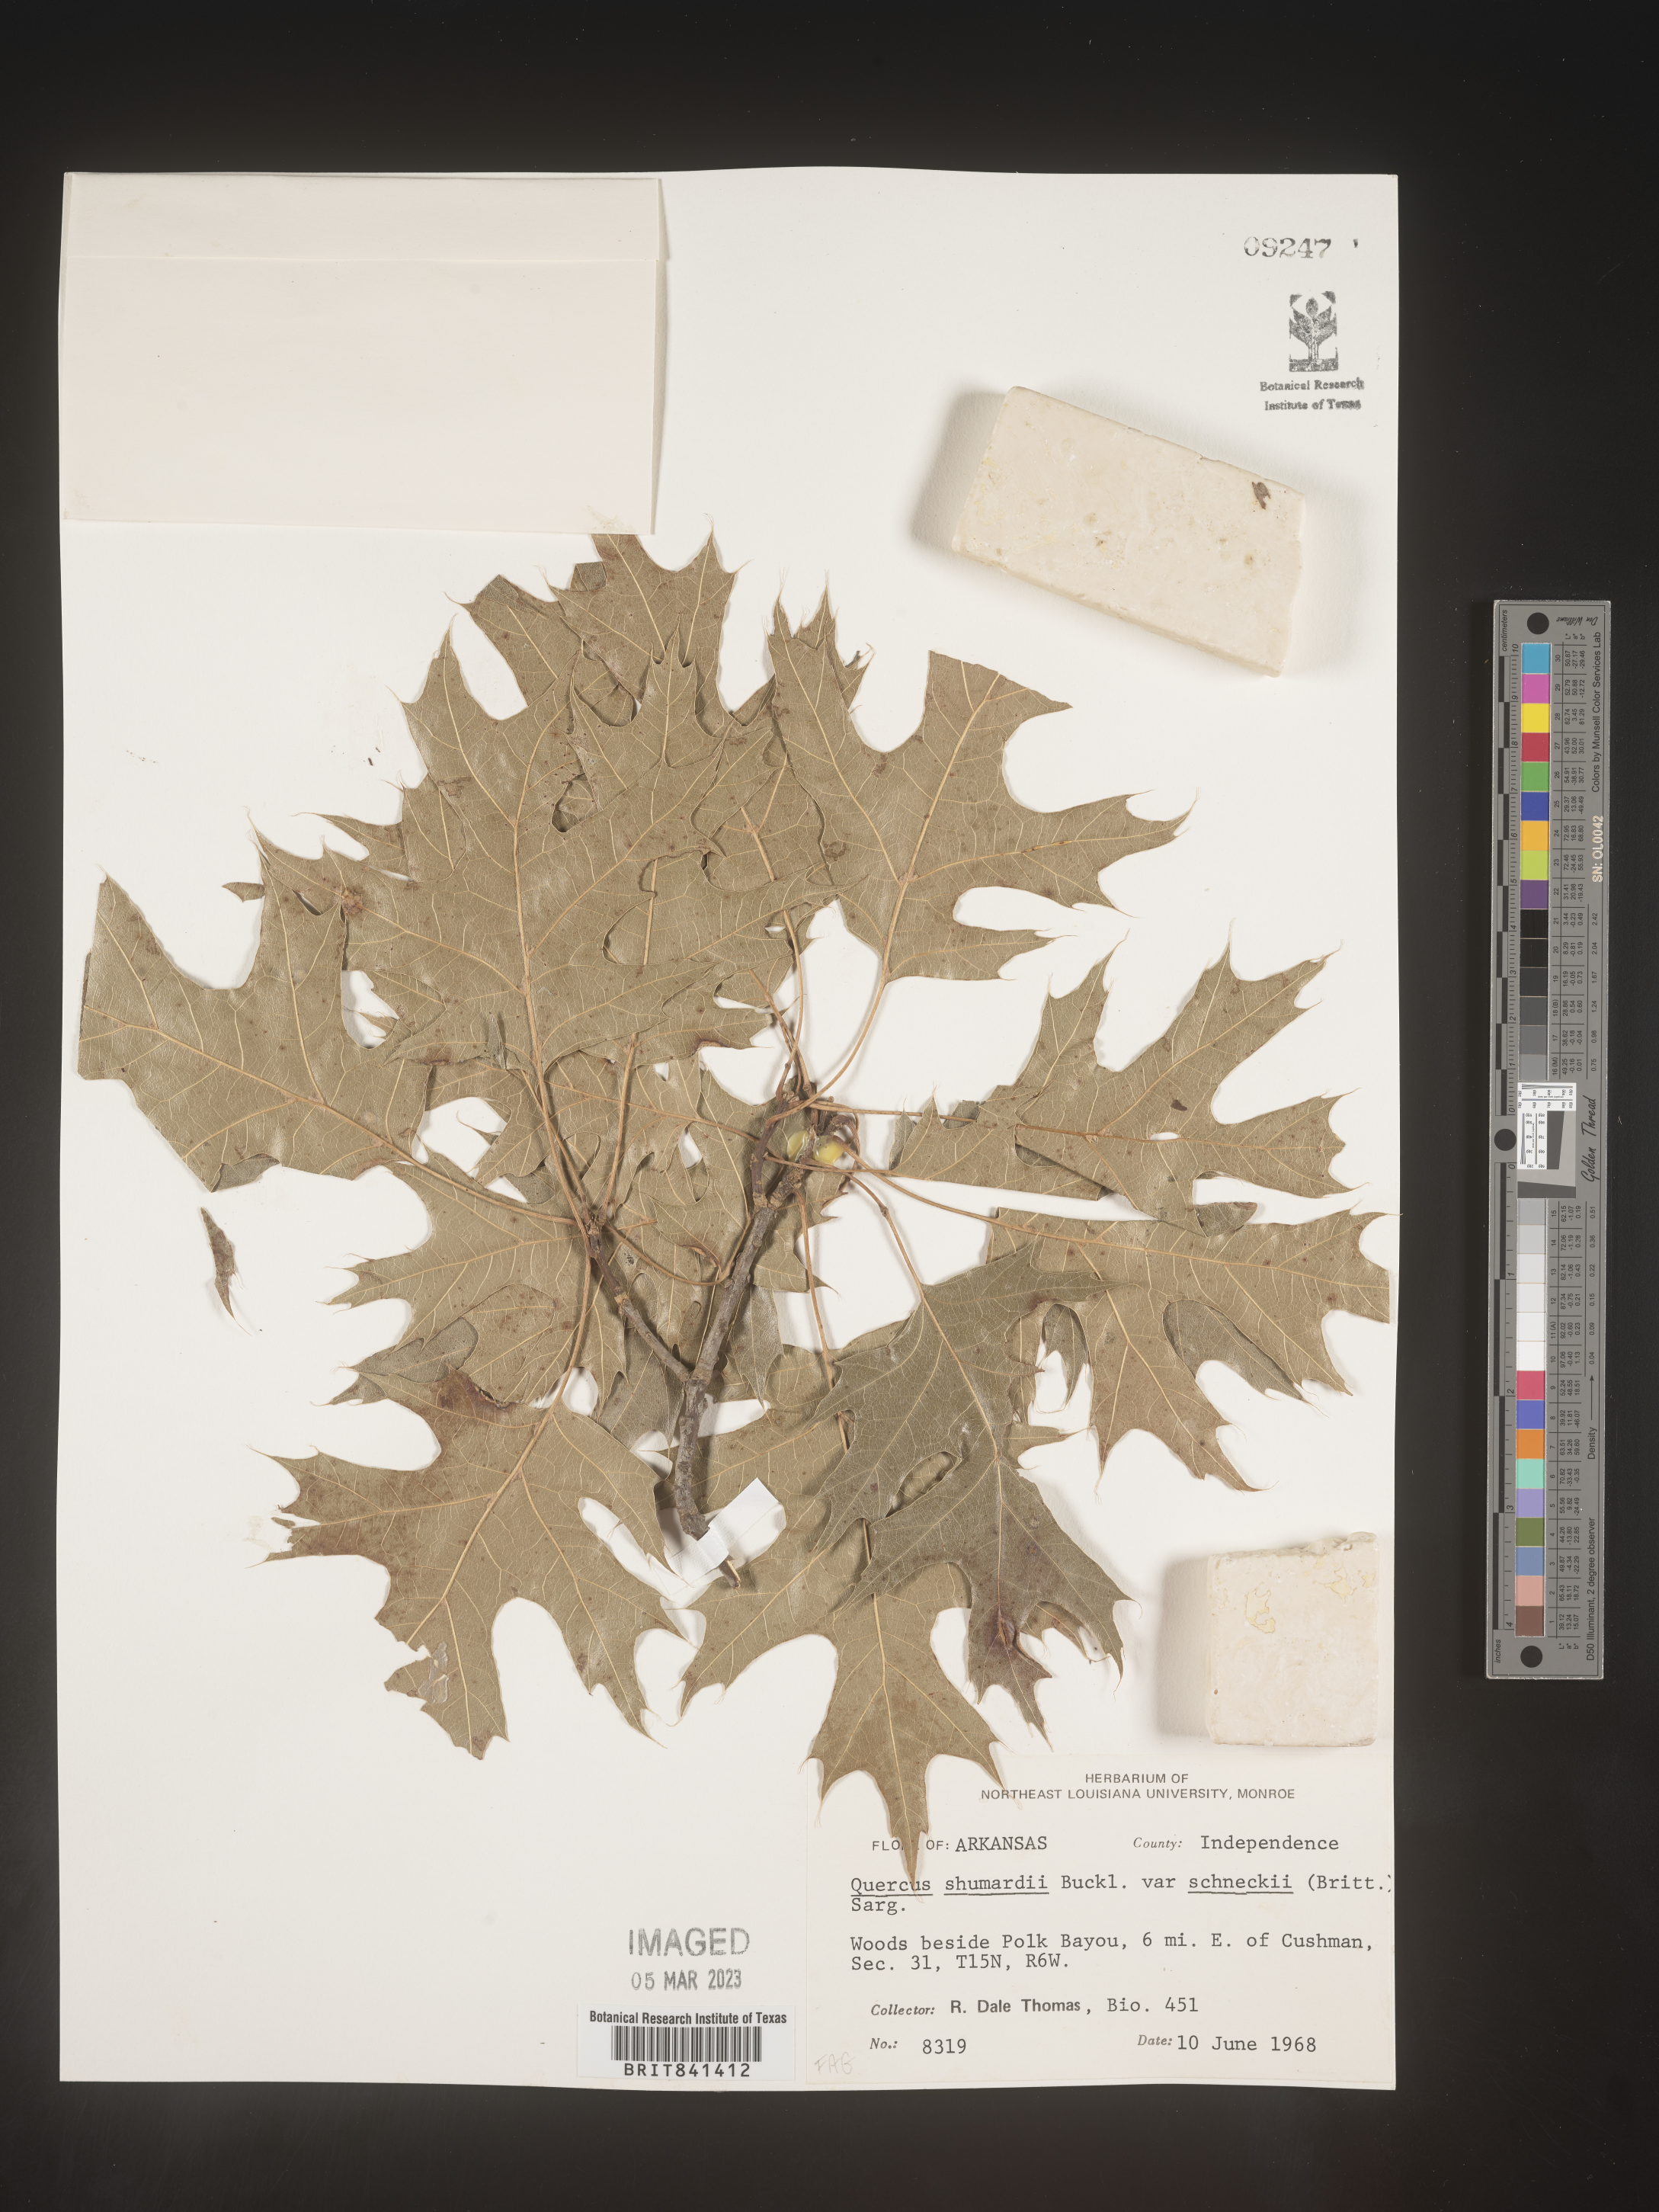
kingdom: Plantae
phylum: Tracheophyta
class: Magnoliopsida
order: Fagales
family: Fagaceae
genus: Quercus
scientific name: Quercus shumardii
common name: Shumard oak
